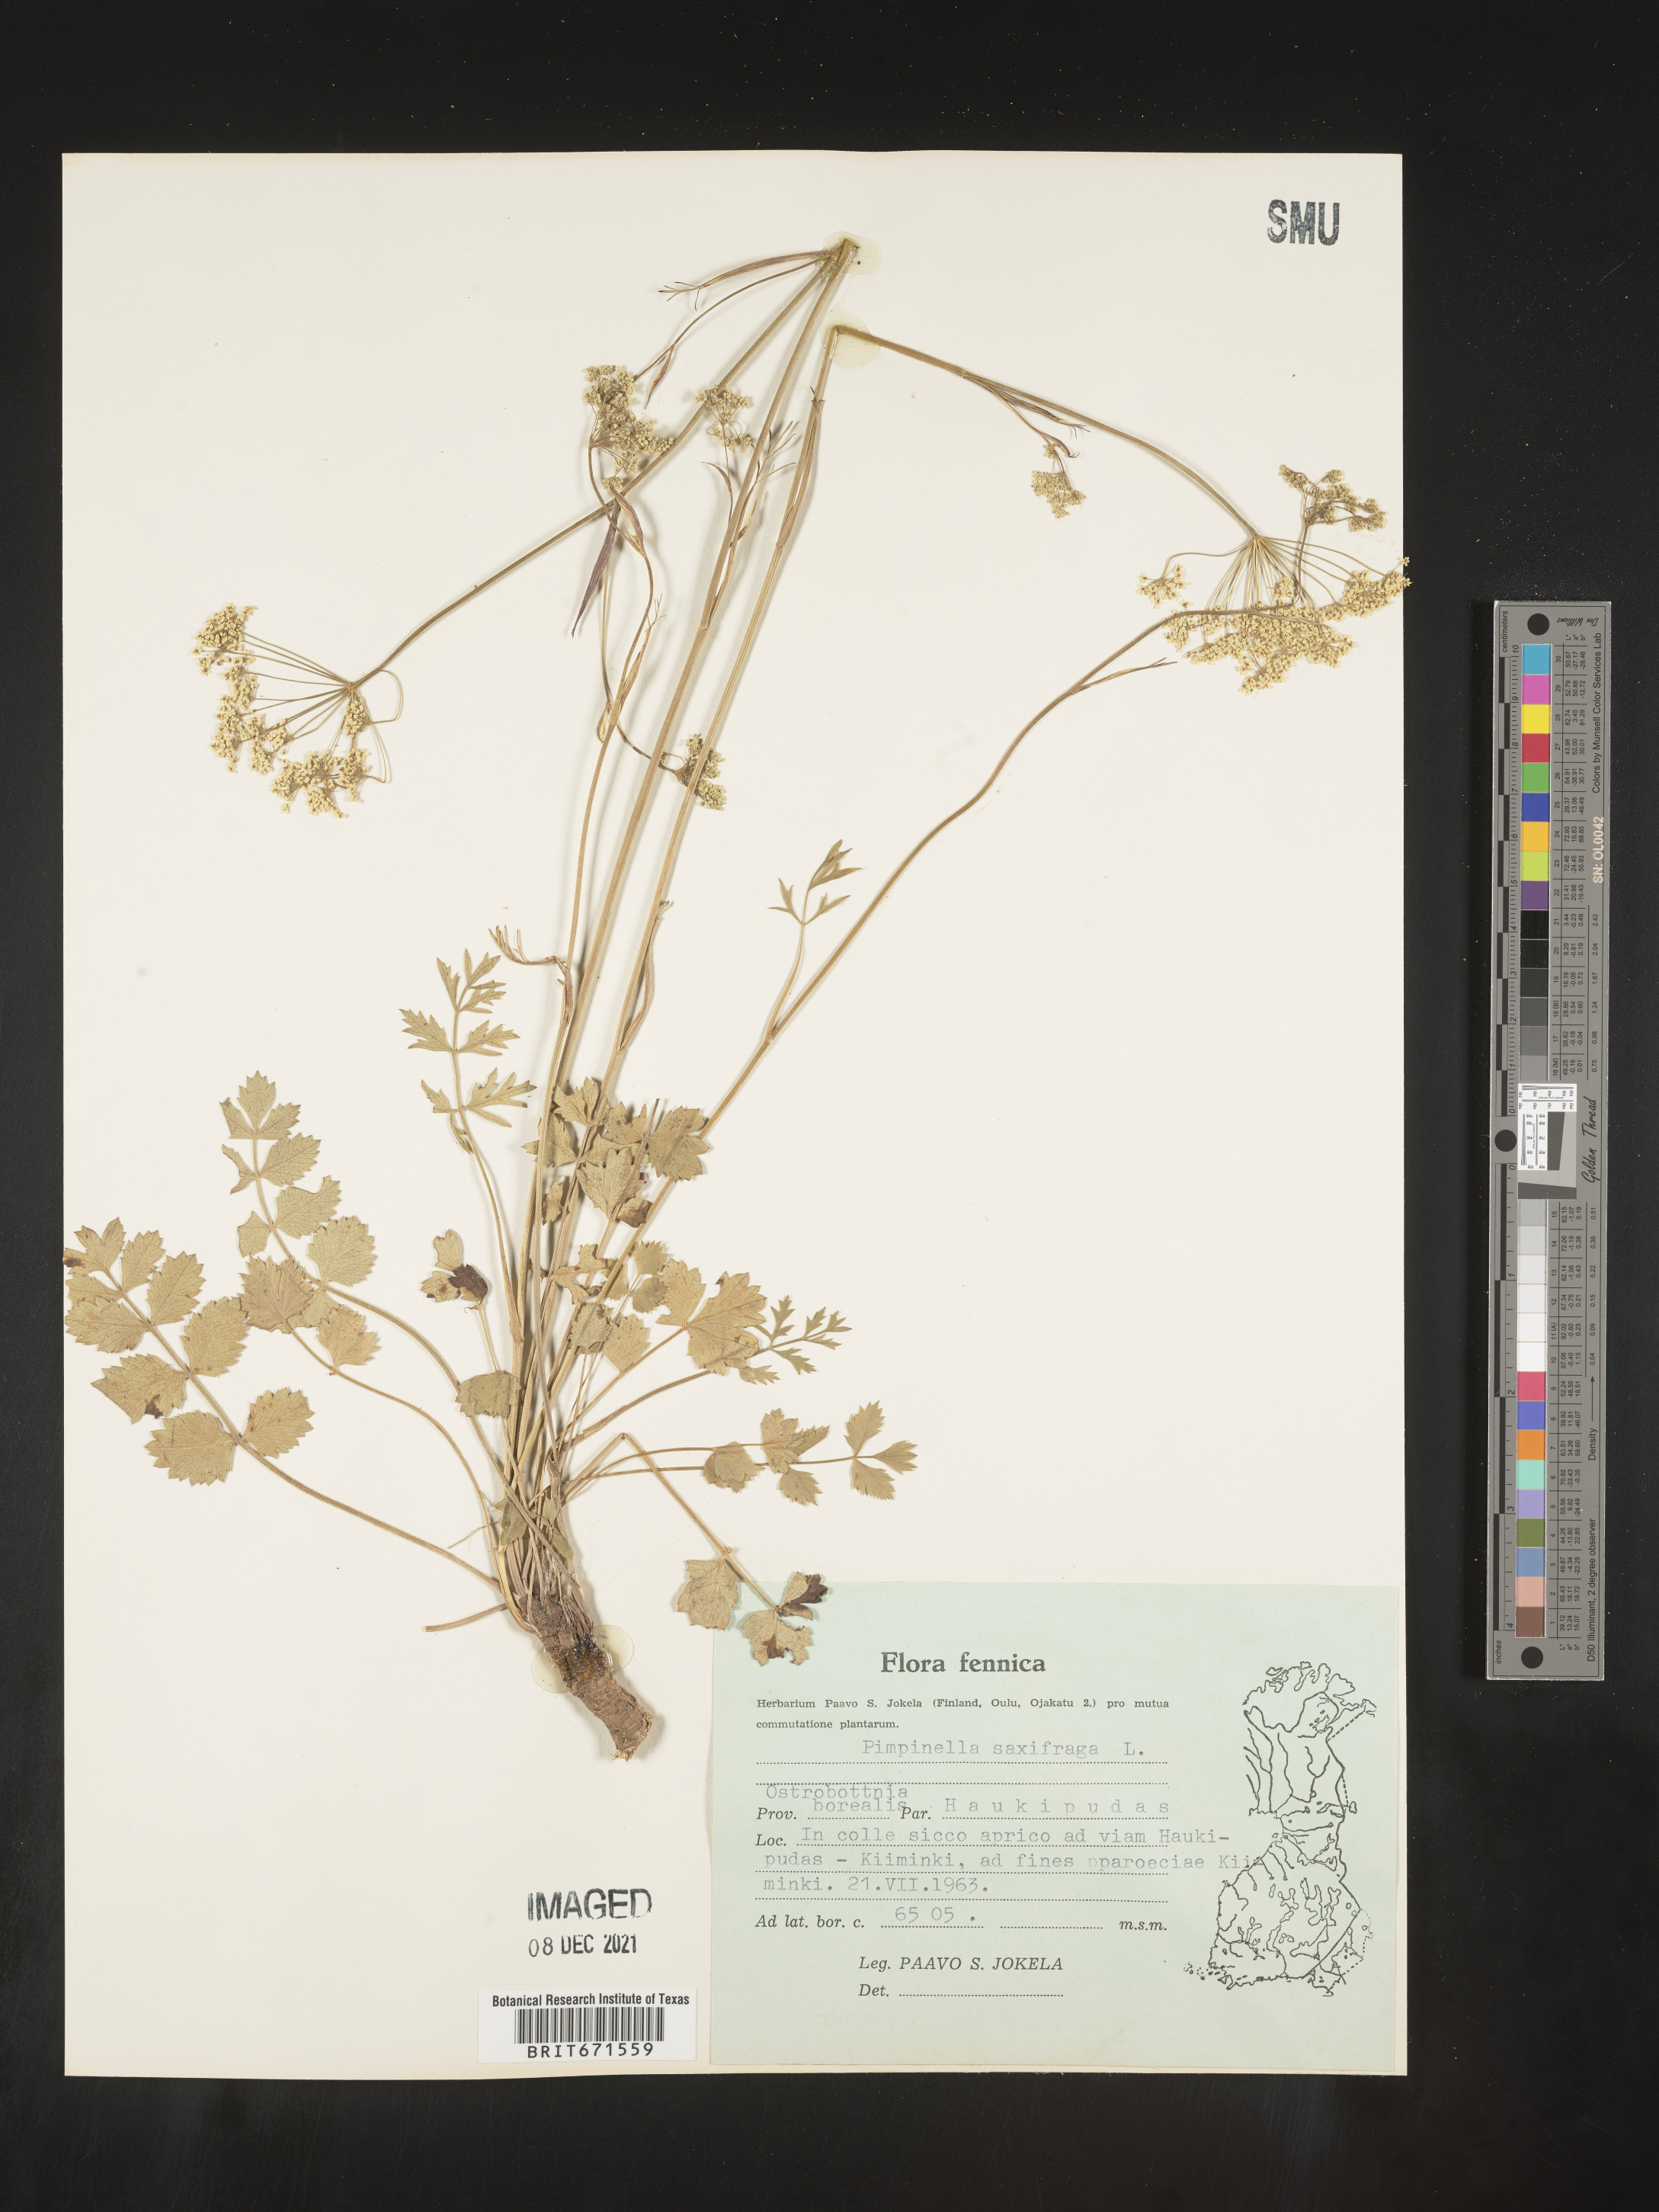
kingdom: Plantae
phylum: Tracheophyta
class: Magnoliopsida
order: Apiales
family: Apiaceae
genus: Pimpinella
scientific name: Pimpinella
